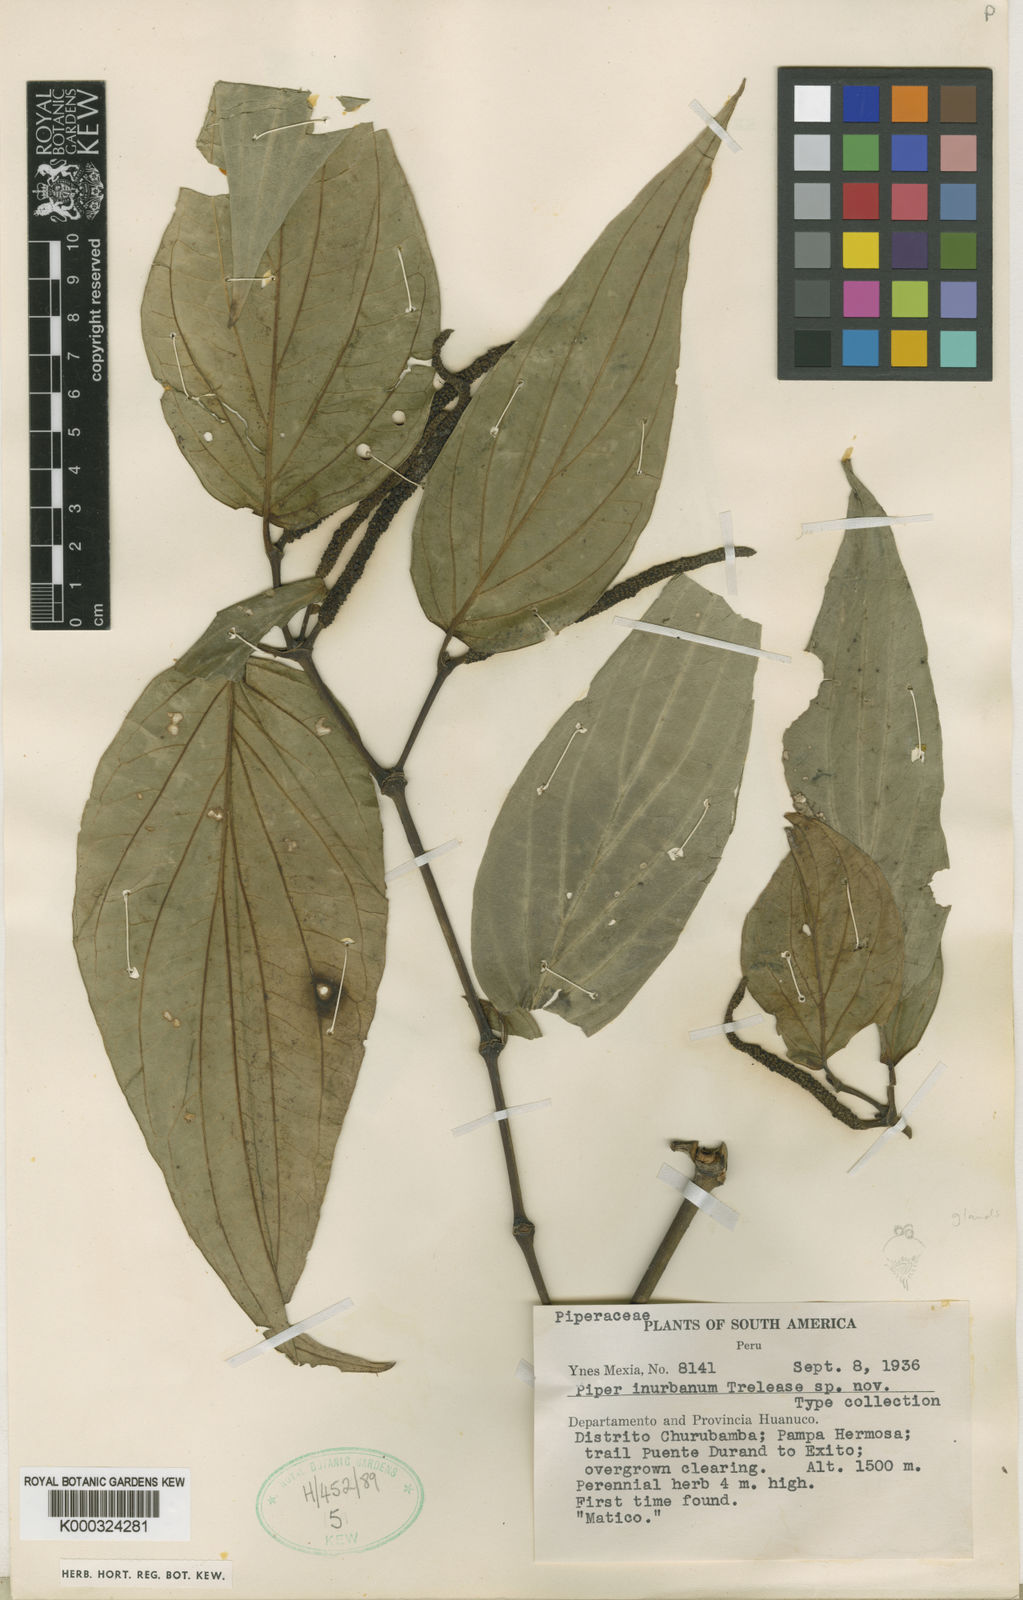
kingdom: Plantae
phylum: Tracheophyta
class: Magnoliopsida
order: Piperales
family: Piperaceae
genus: Piper
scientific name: Piper
